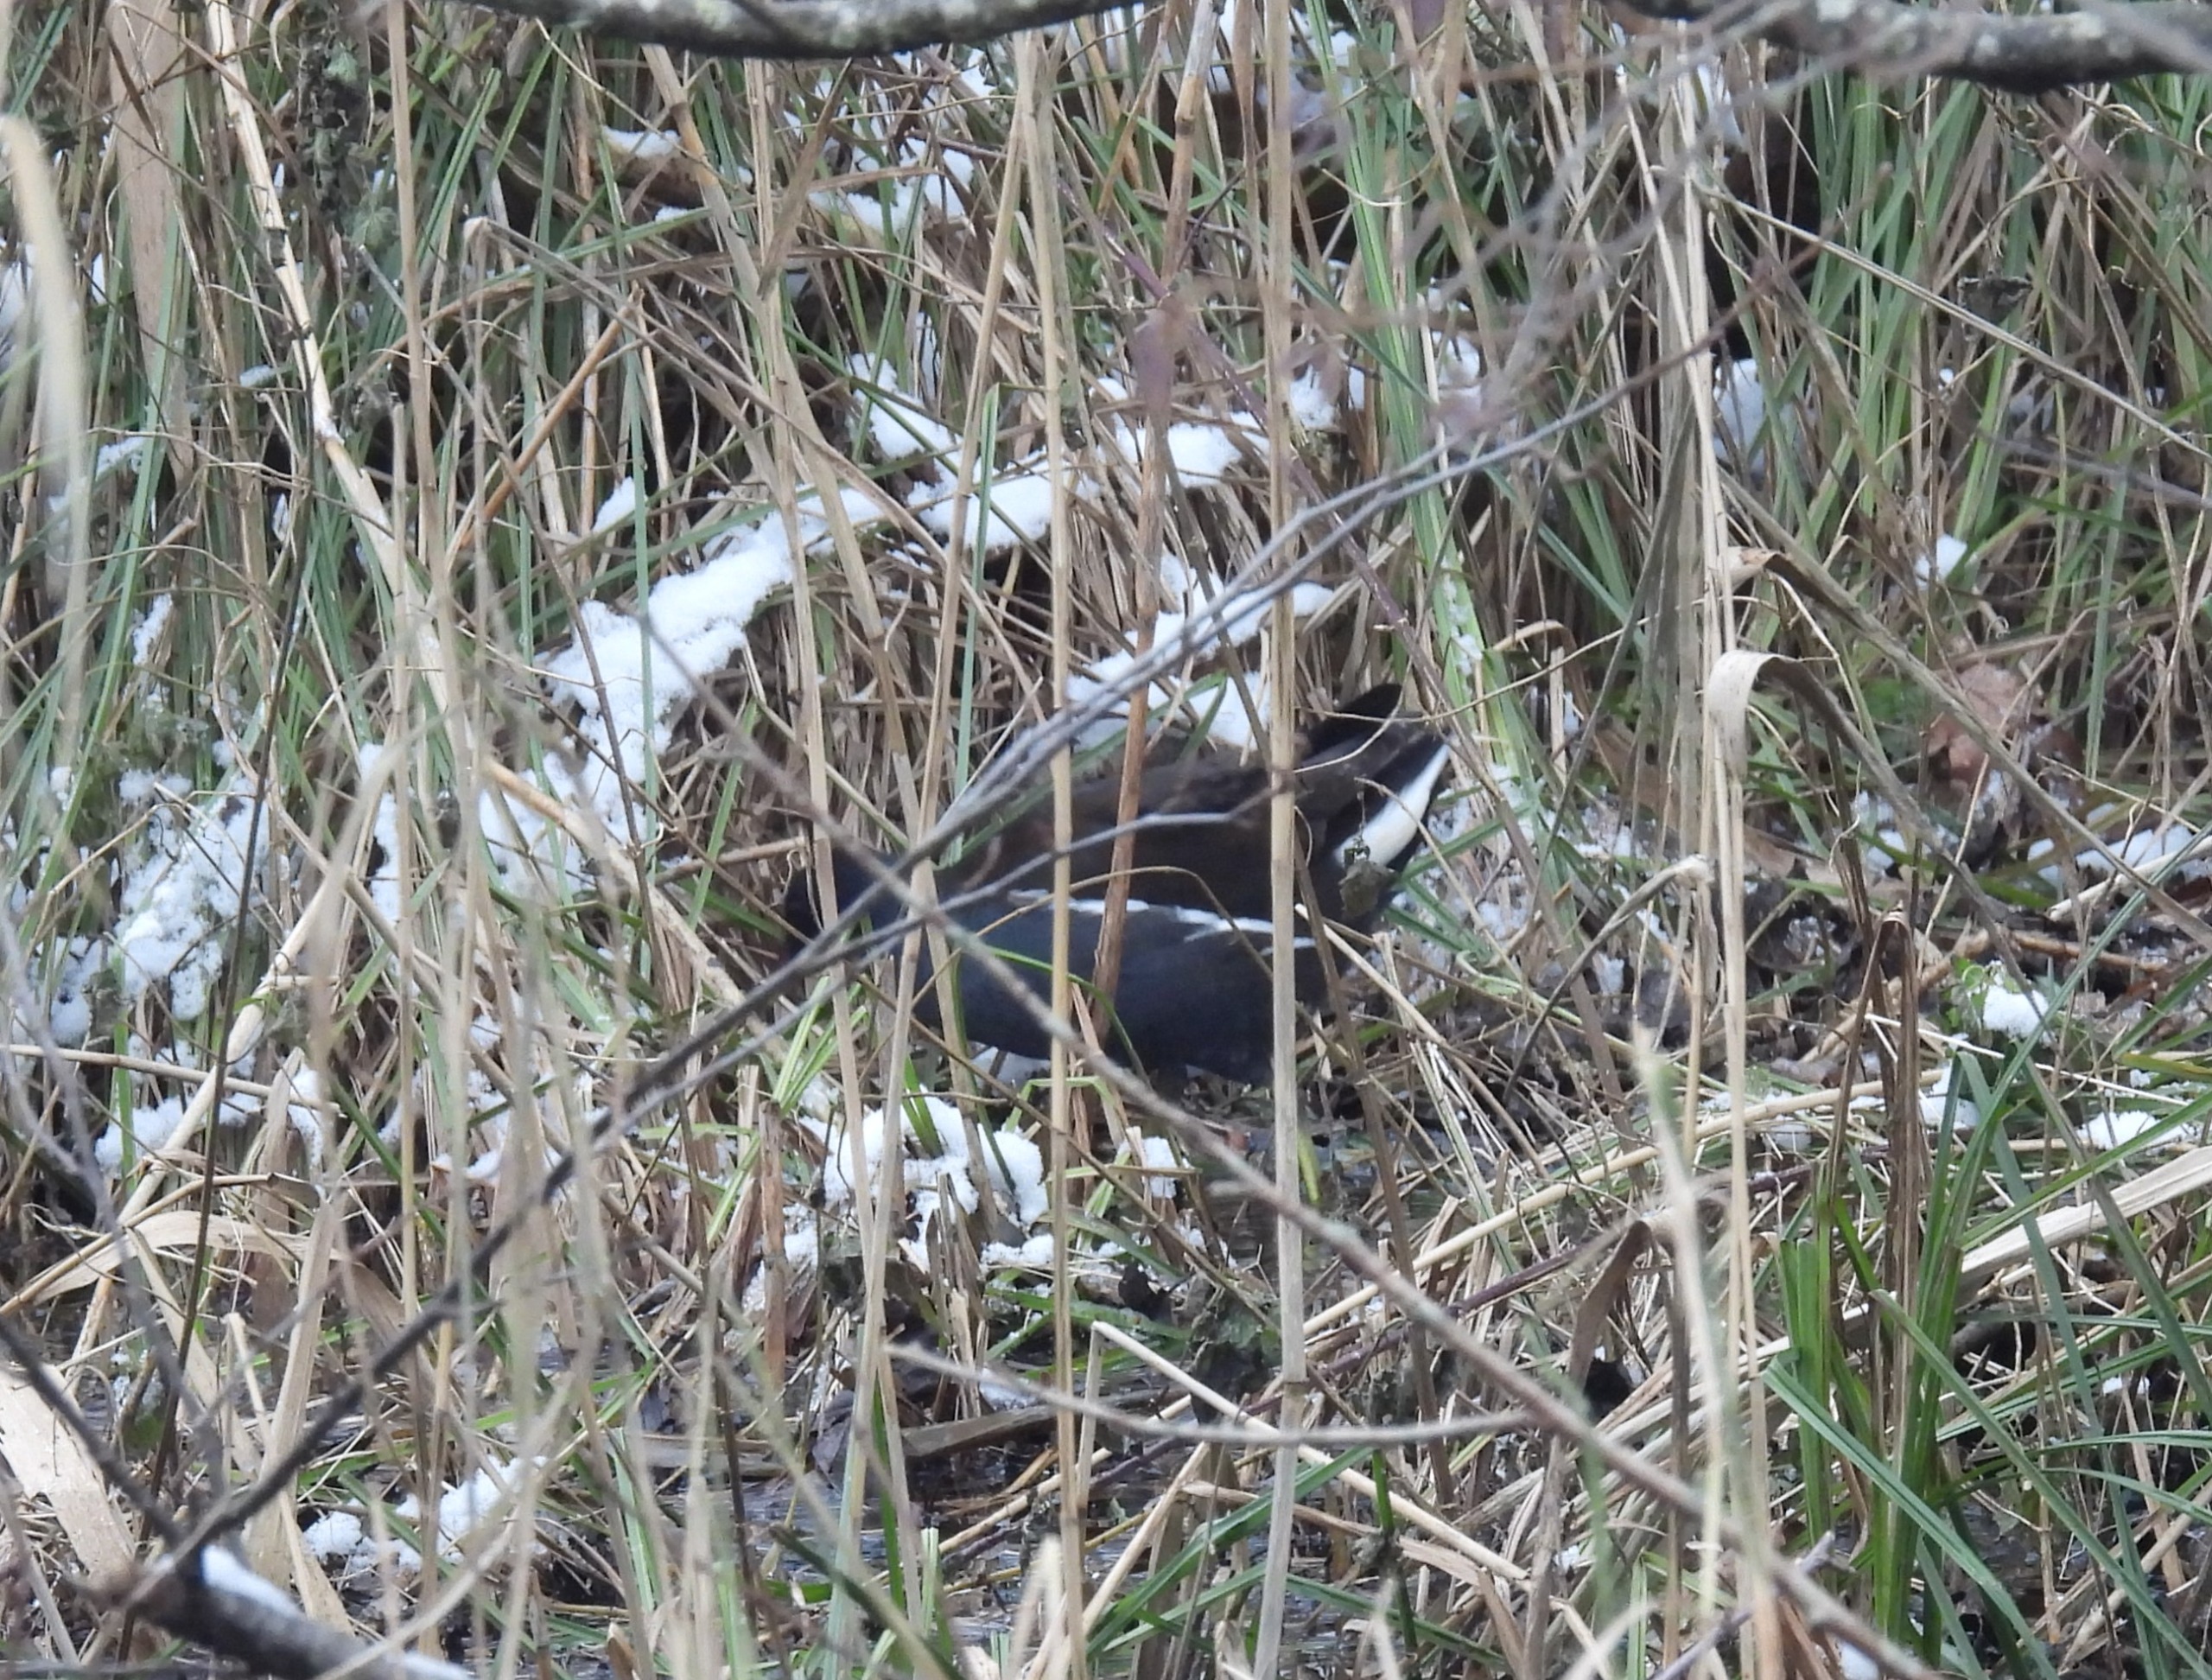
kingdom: Animalia
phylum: Chordata
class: Aves
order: Gruiformes
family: Rallidae
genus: Gallinula
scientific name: Gallinula chloropus
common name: Grønbenet rørhøne
